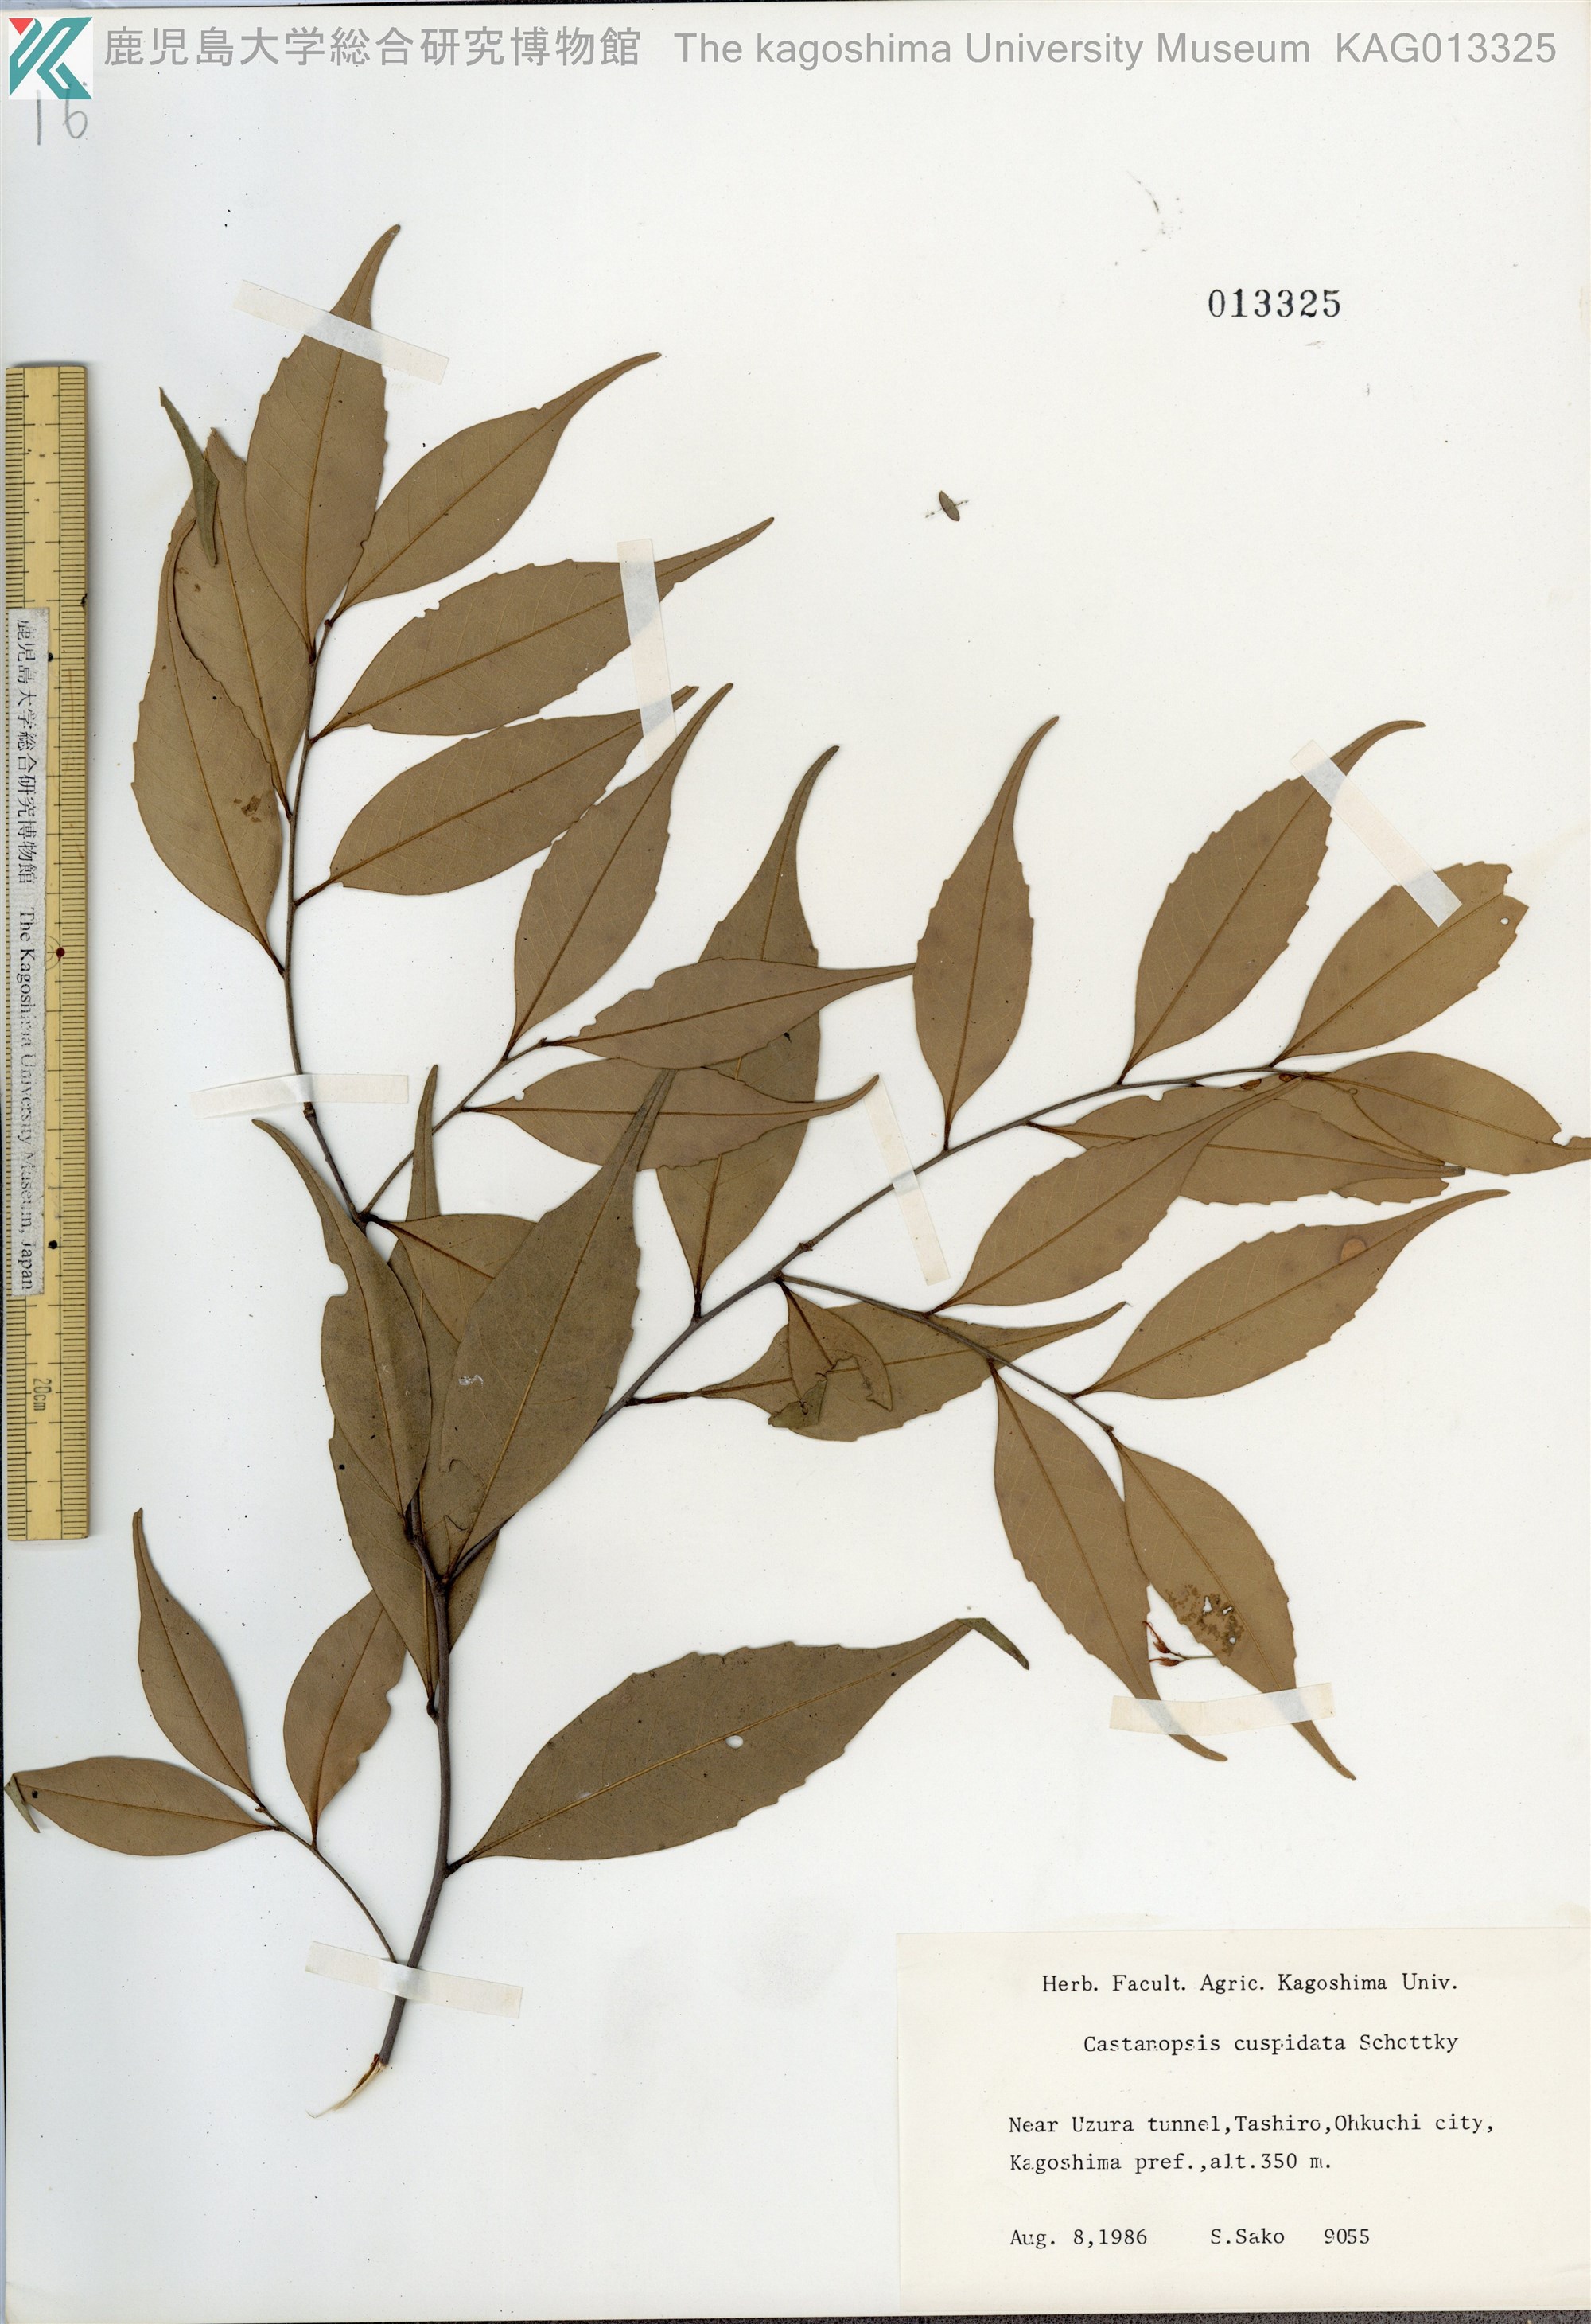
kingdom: Plantae
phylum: Tracheophyta
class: Magnoliopsida
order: Fagales
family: Fagaceae
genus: Castanopsis
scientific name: Castanopsis cuspidata
